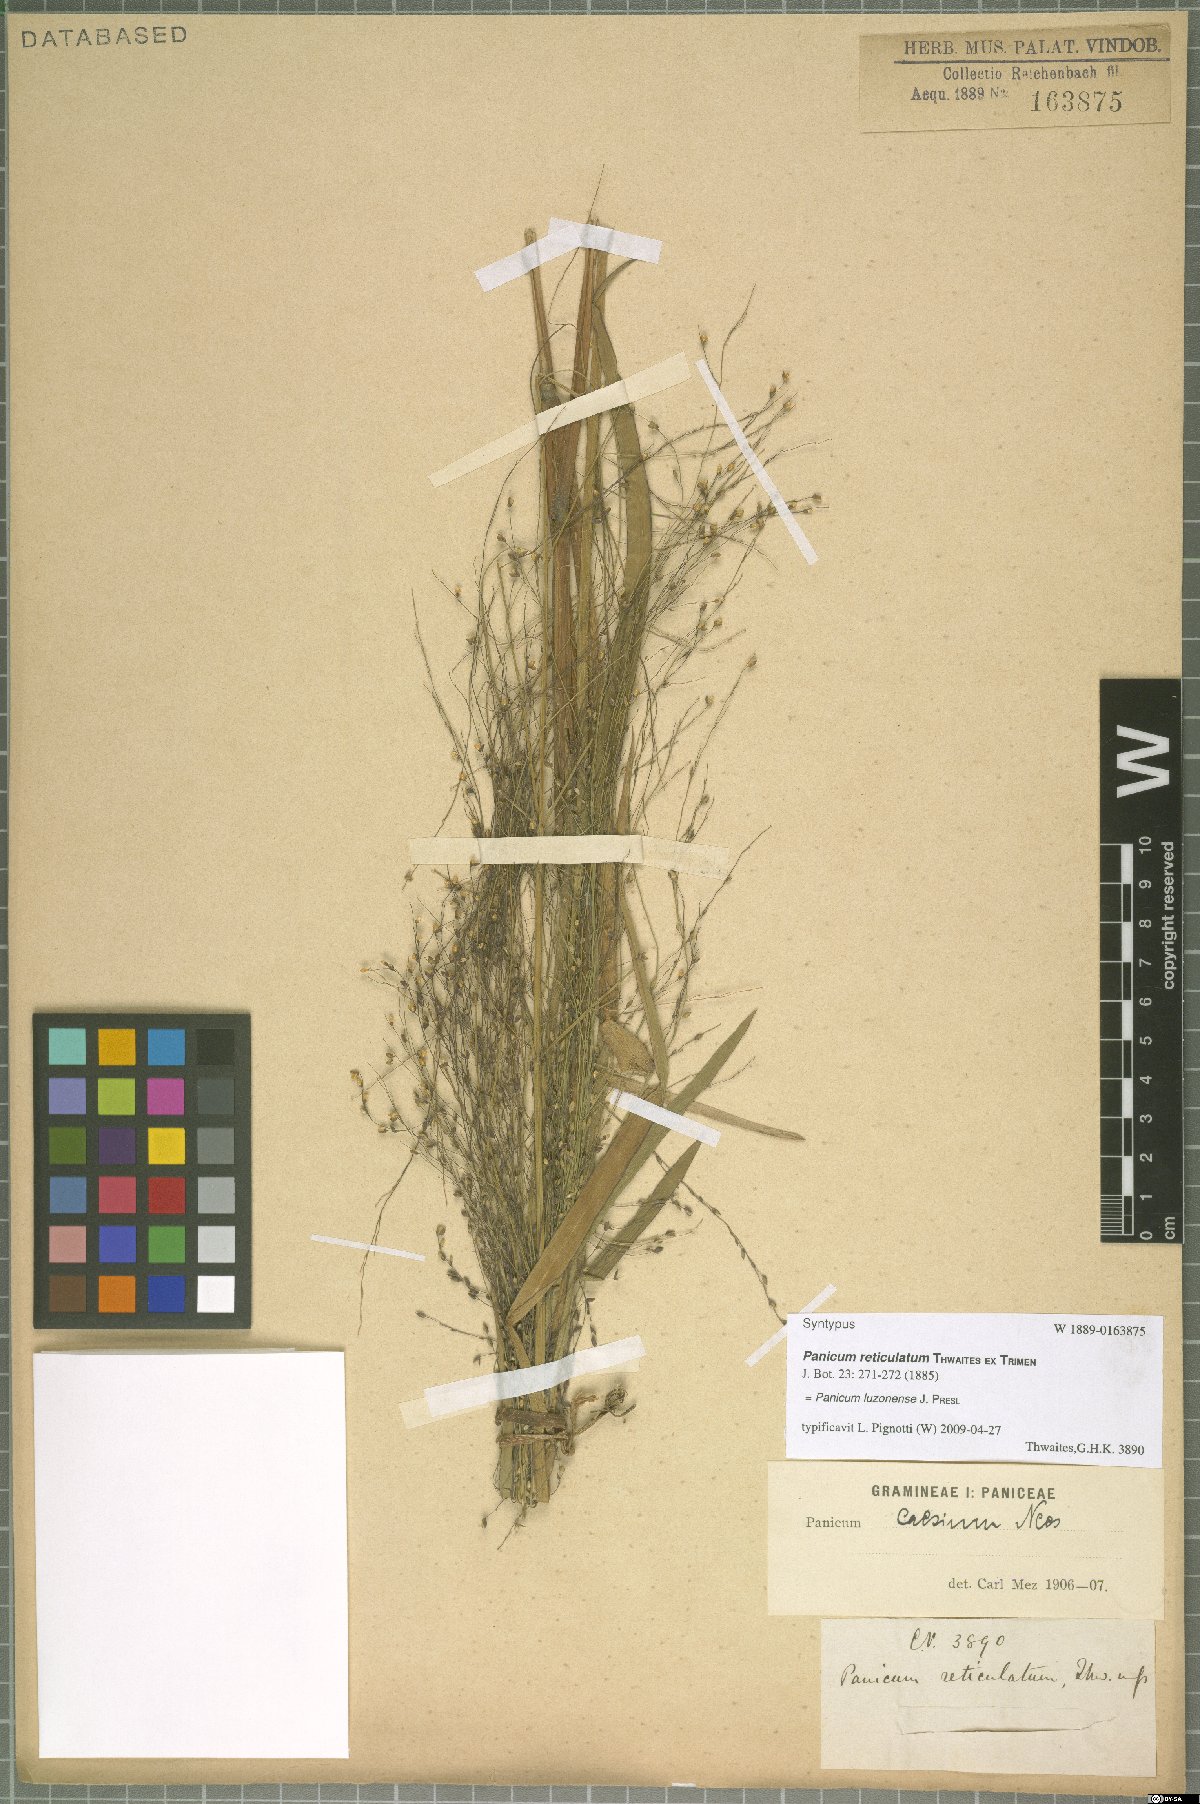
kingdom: Plantae
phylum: Tracheophyta
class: Liliopsida
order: Poales
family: Poaceae
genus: Panicum
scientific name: Panicum luzonense
